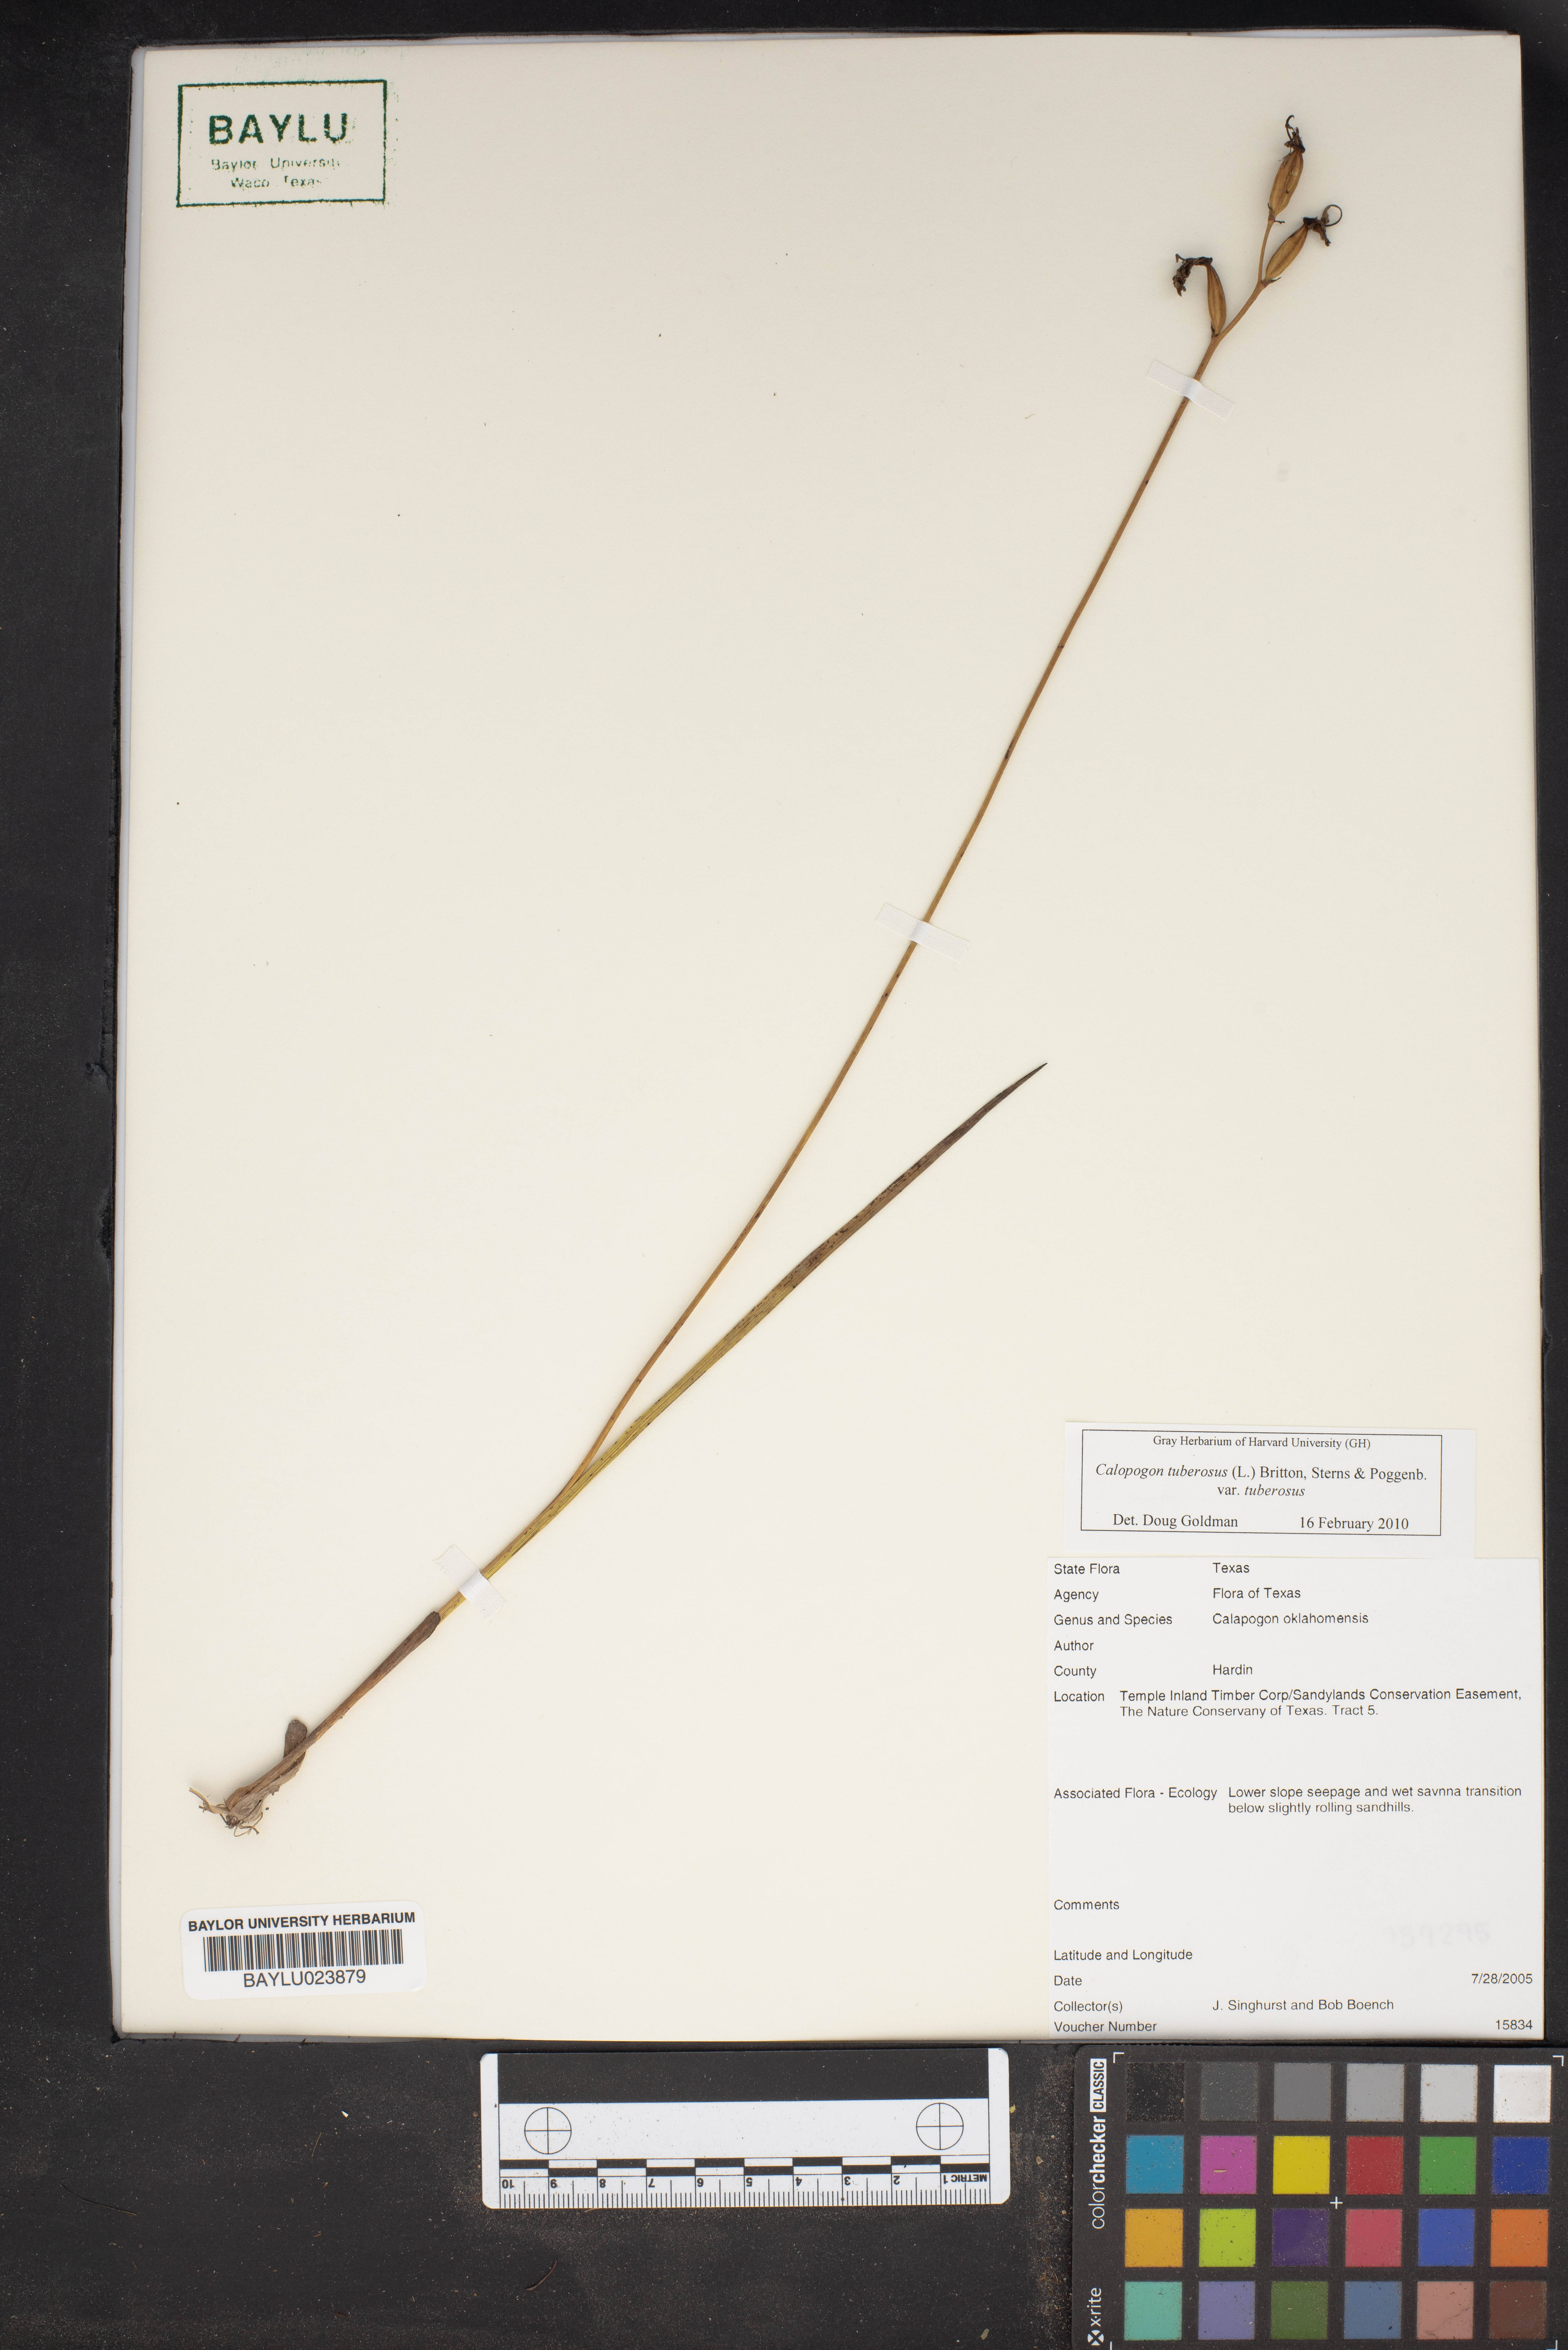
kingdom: Plantae
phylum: Tracheophyta
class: Liliopsida
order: Asparagales
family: Orchidaceae
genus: Calopogon
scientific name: Calopogon tuberosus
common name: Grass-pink
